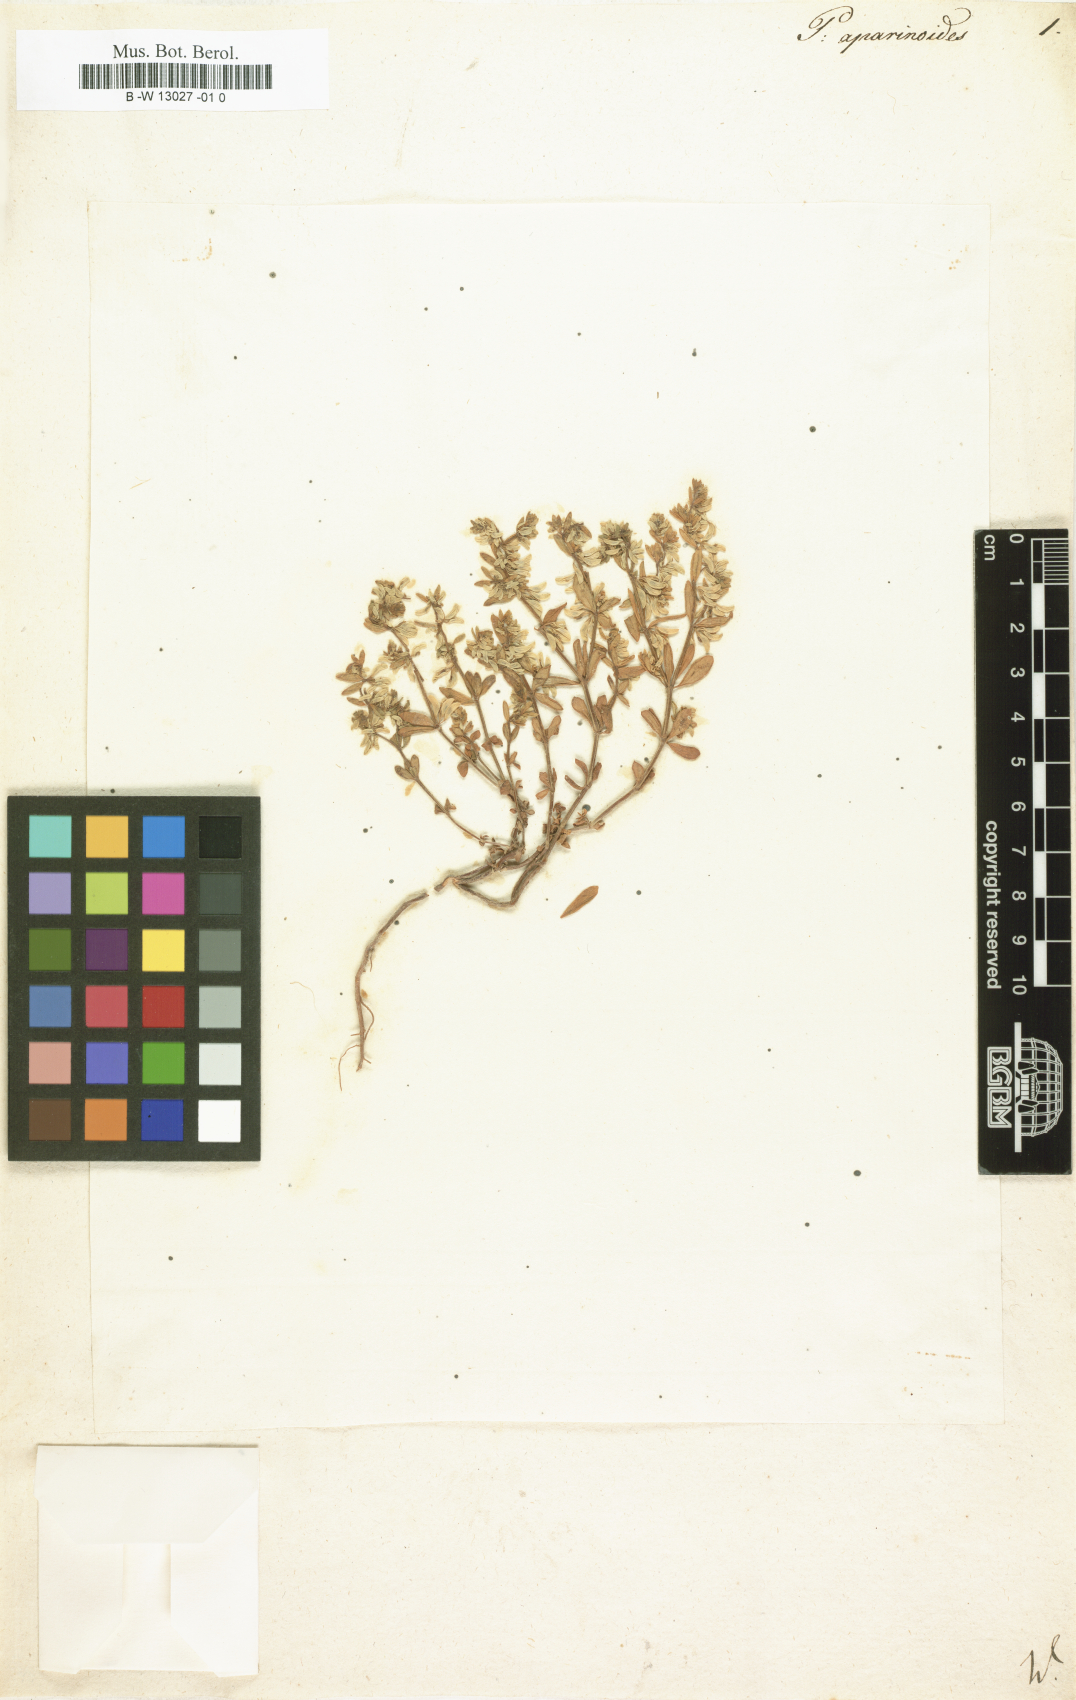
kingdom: Plantae
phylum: Tracheophyta
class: Magnoliopsida
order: Fabales
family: Polygalaceae
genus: Polygala
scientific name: Polygala aparinoides
